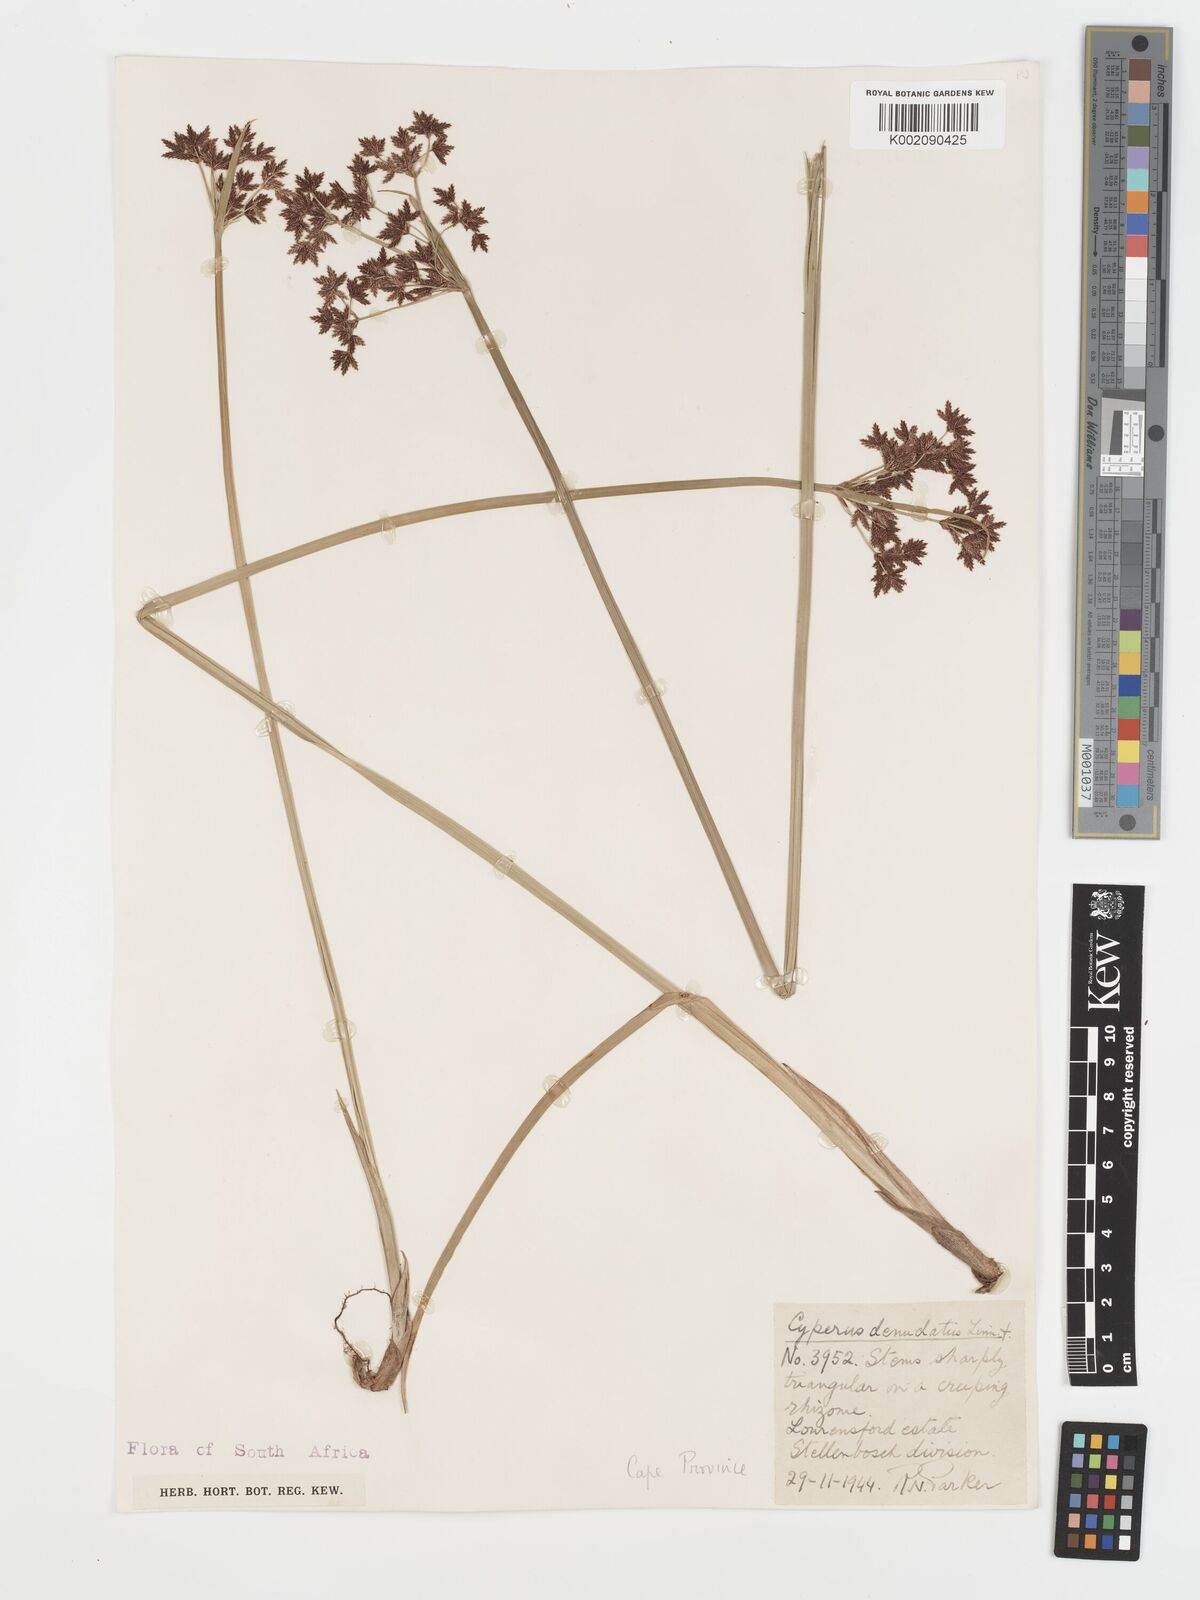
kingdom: Plantae
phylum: Tracheophyta
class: Liliopsida
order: Poales
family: Cyperaceae
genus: Cyperus
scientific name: Cyperus denudatus
